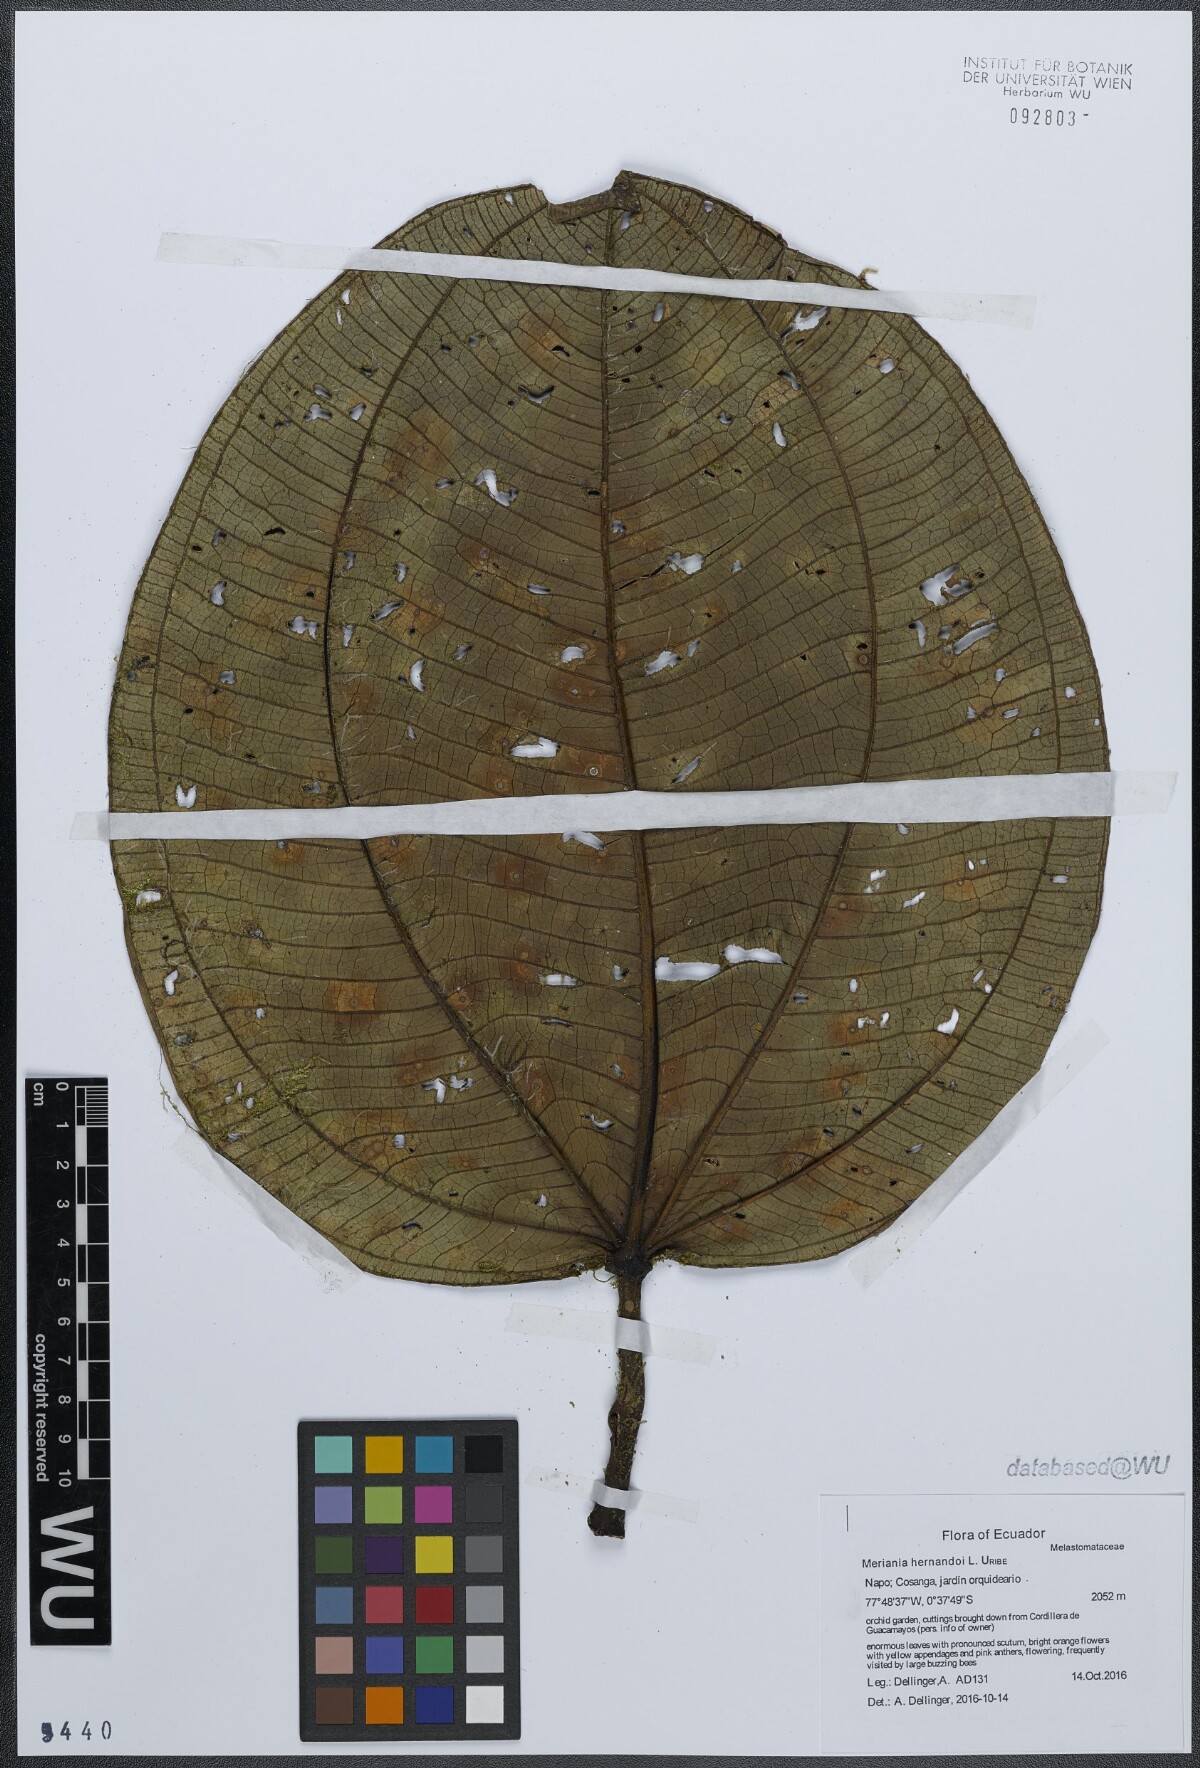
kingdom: Plantae
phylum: Tracheophyta
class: Magnoliopsida
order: Myrtales
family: Melastomataceae
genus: Meriania
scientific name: Meriania hernandoi
